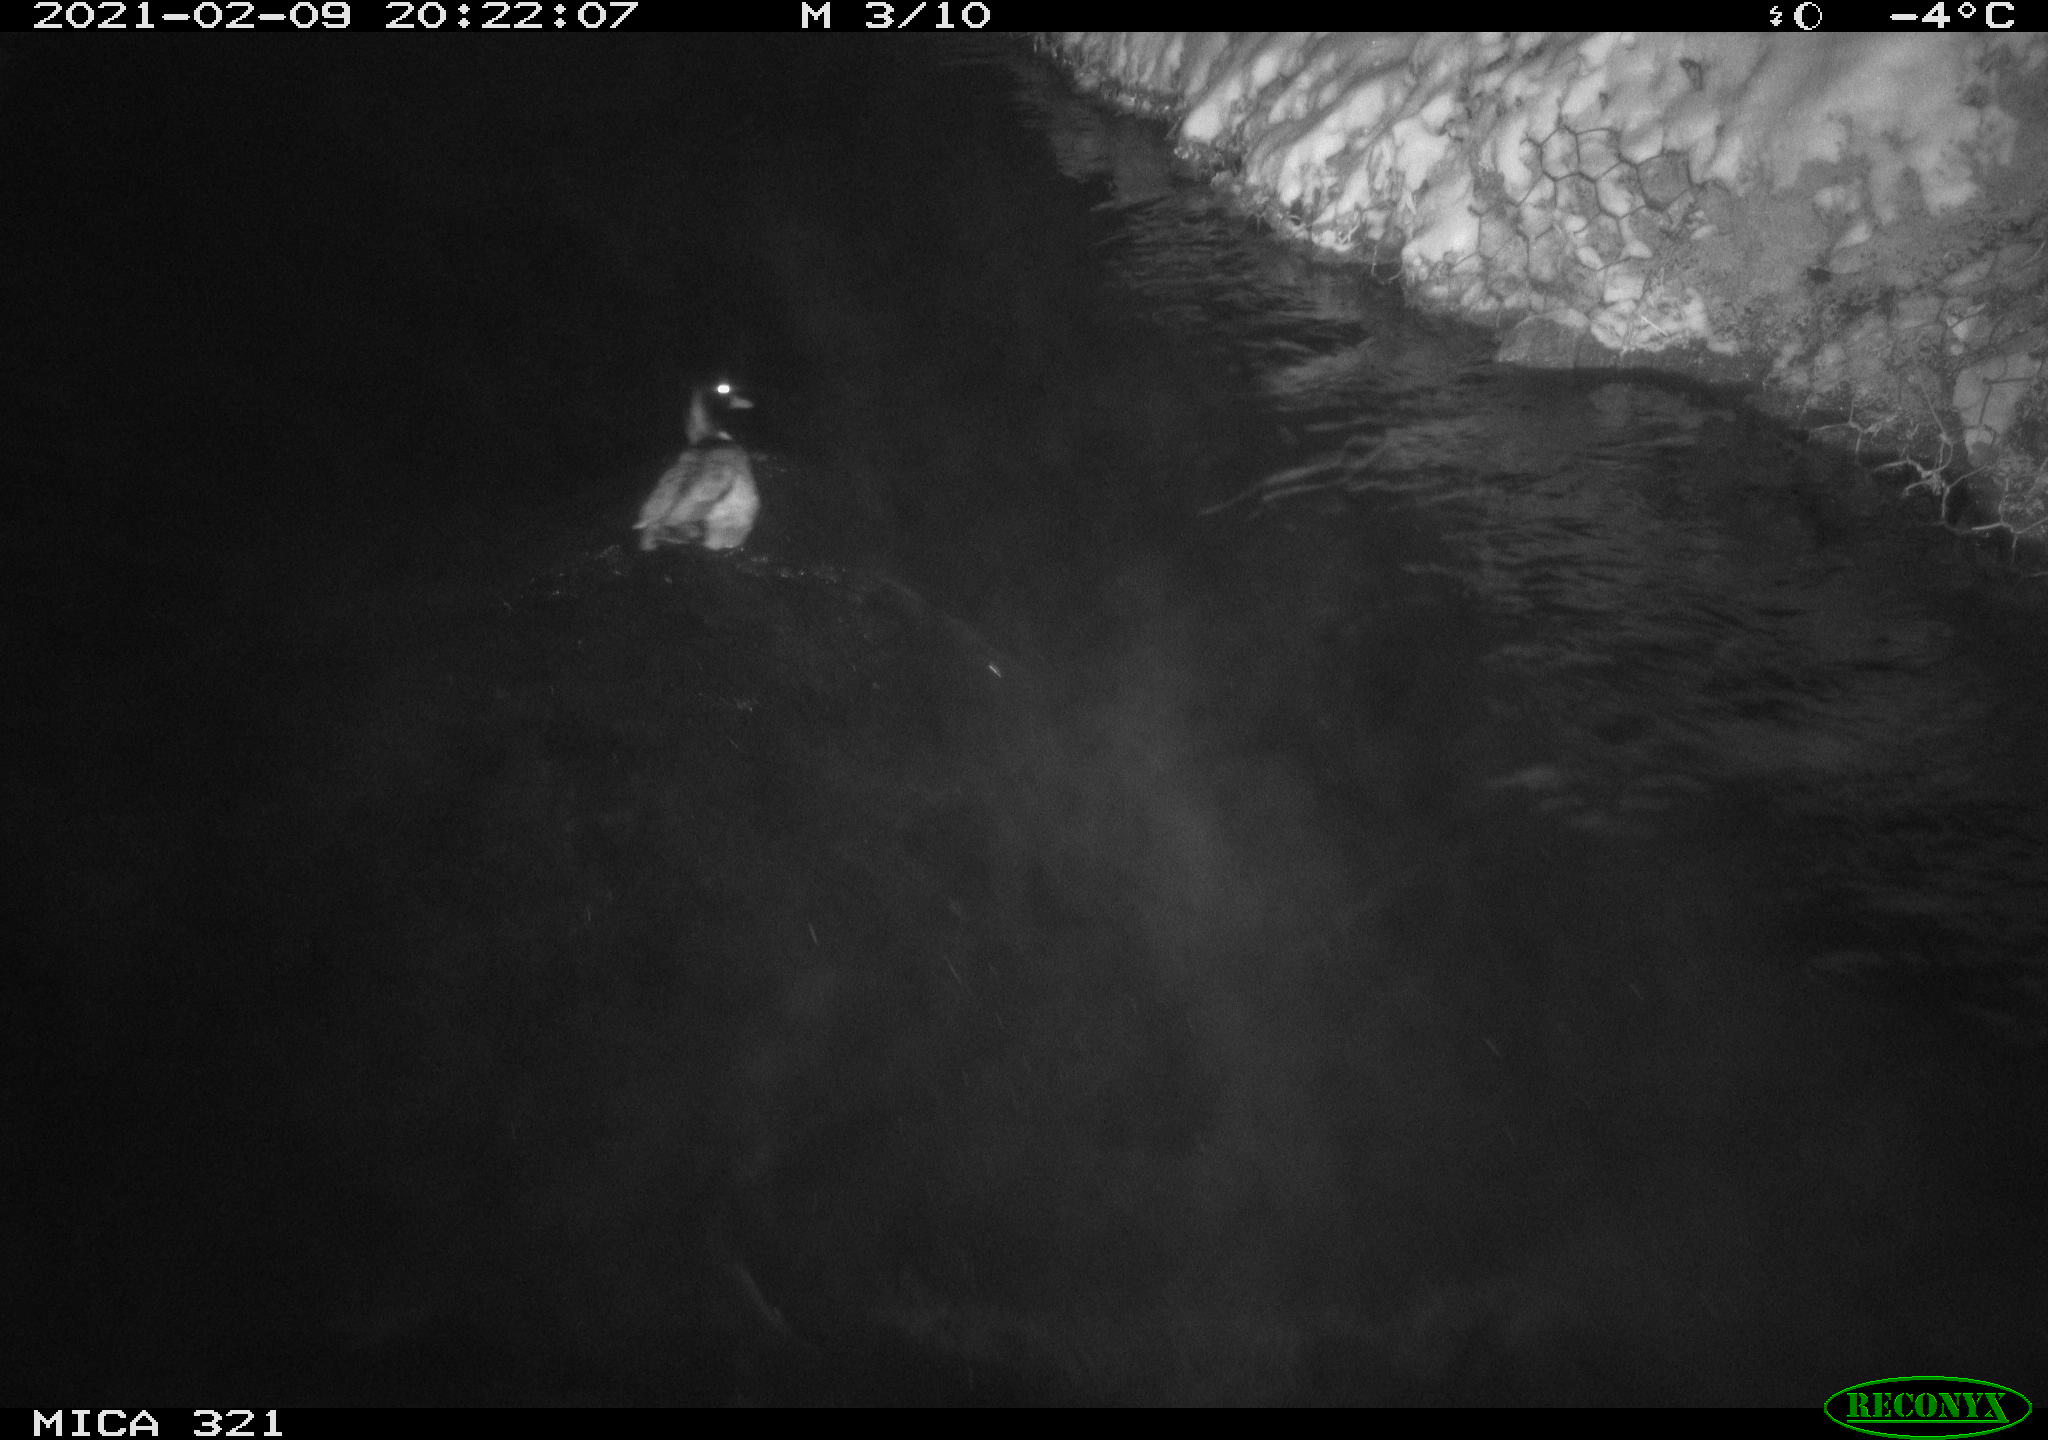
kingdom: Animalia
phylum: Chordata
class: Aves
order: Anseriformes
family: Anatidae
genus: Anas
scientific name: Anas platyrhynchos
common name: Mallard
